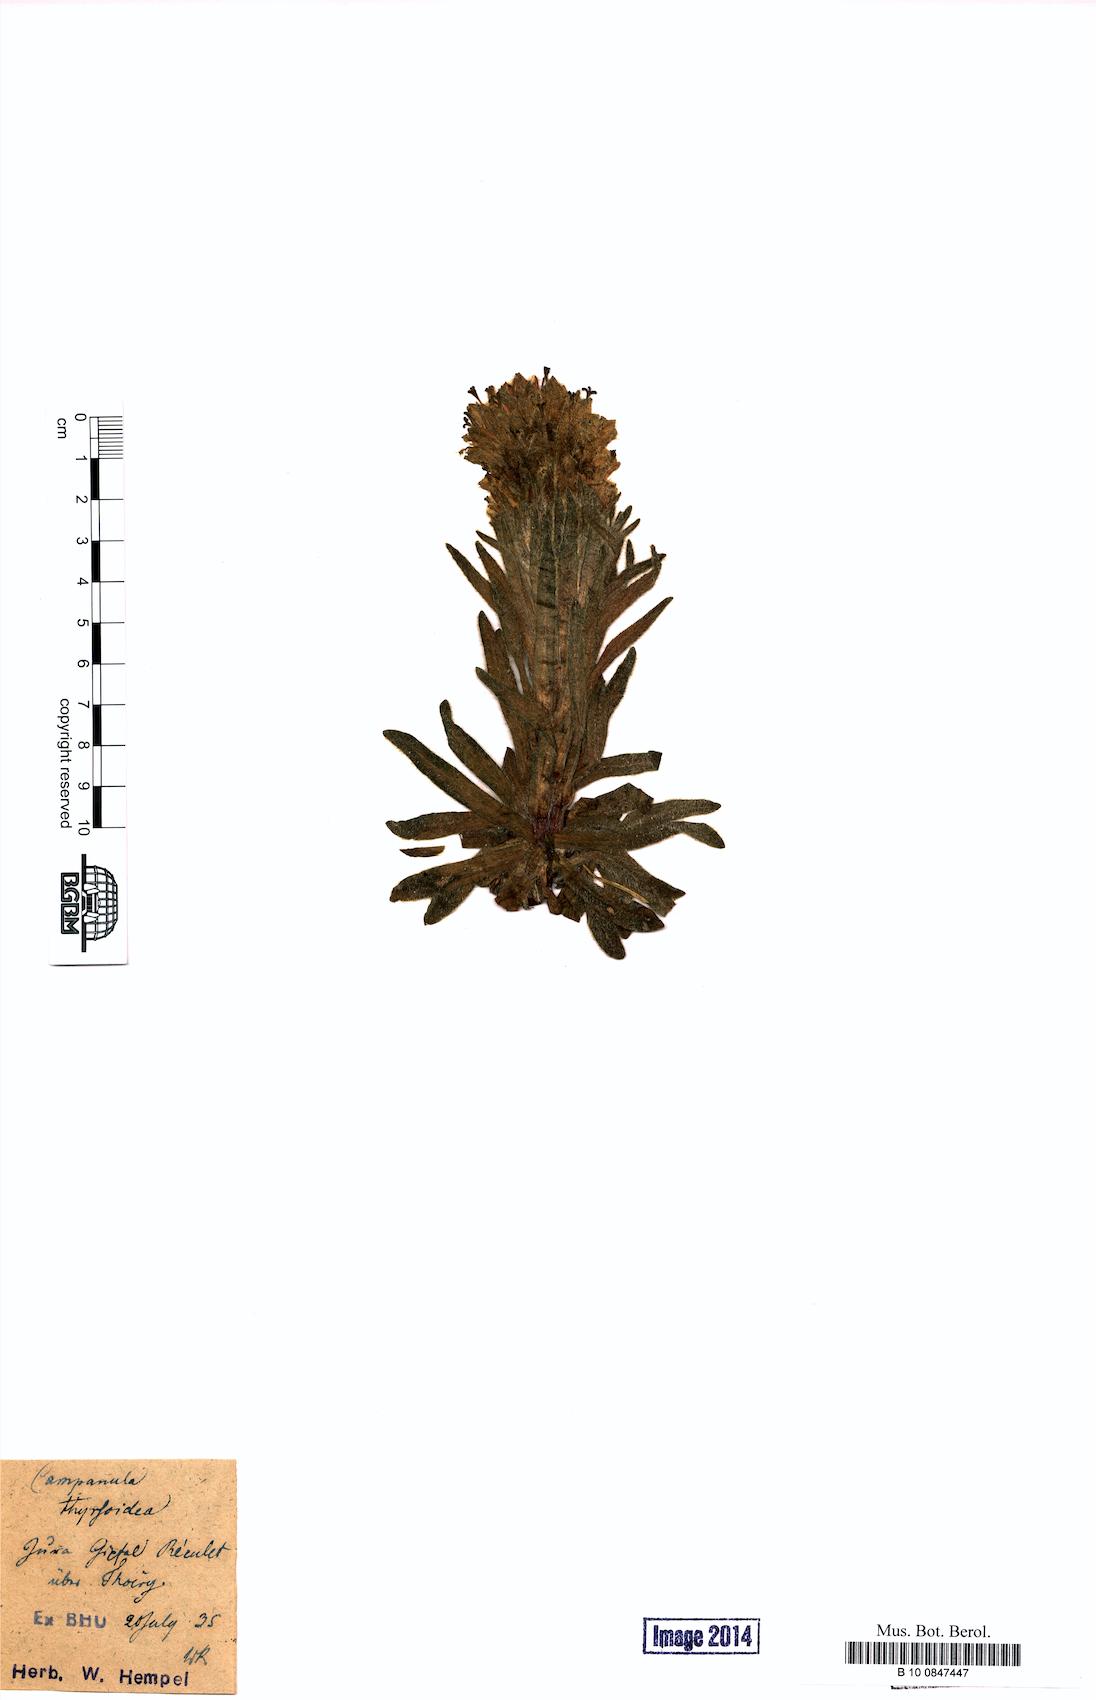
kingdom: Plantae
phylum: Tracheophyta
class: Magnoliopsida
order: Asterales
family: Campanulaceae
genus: Campanula
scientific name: Campanula thyrsoides
